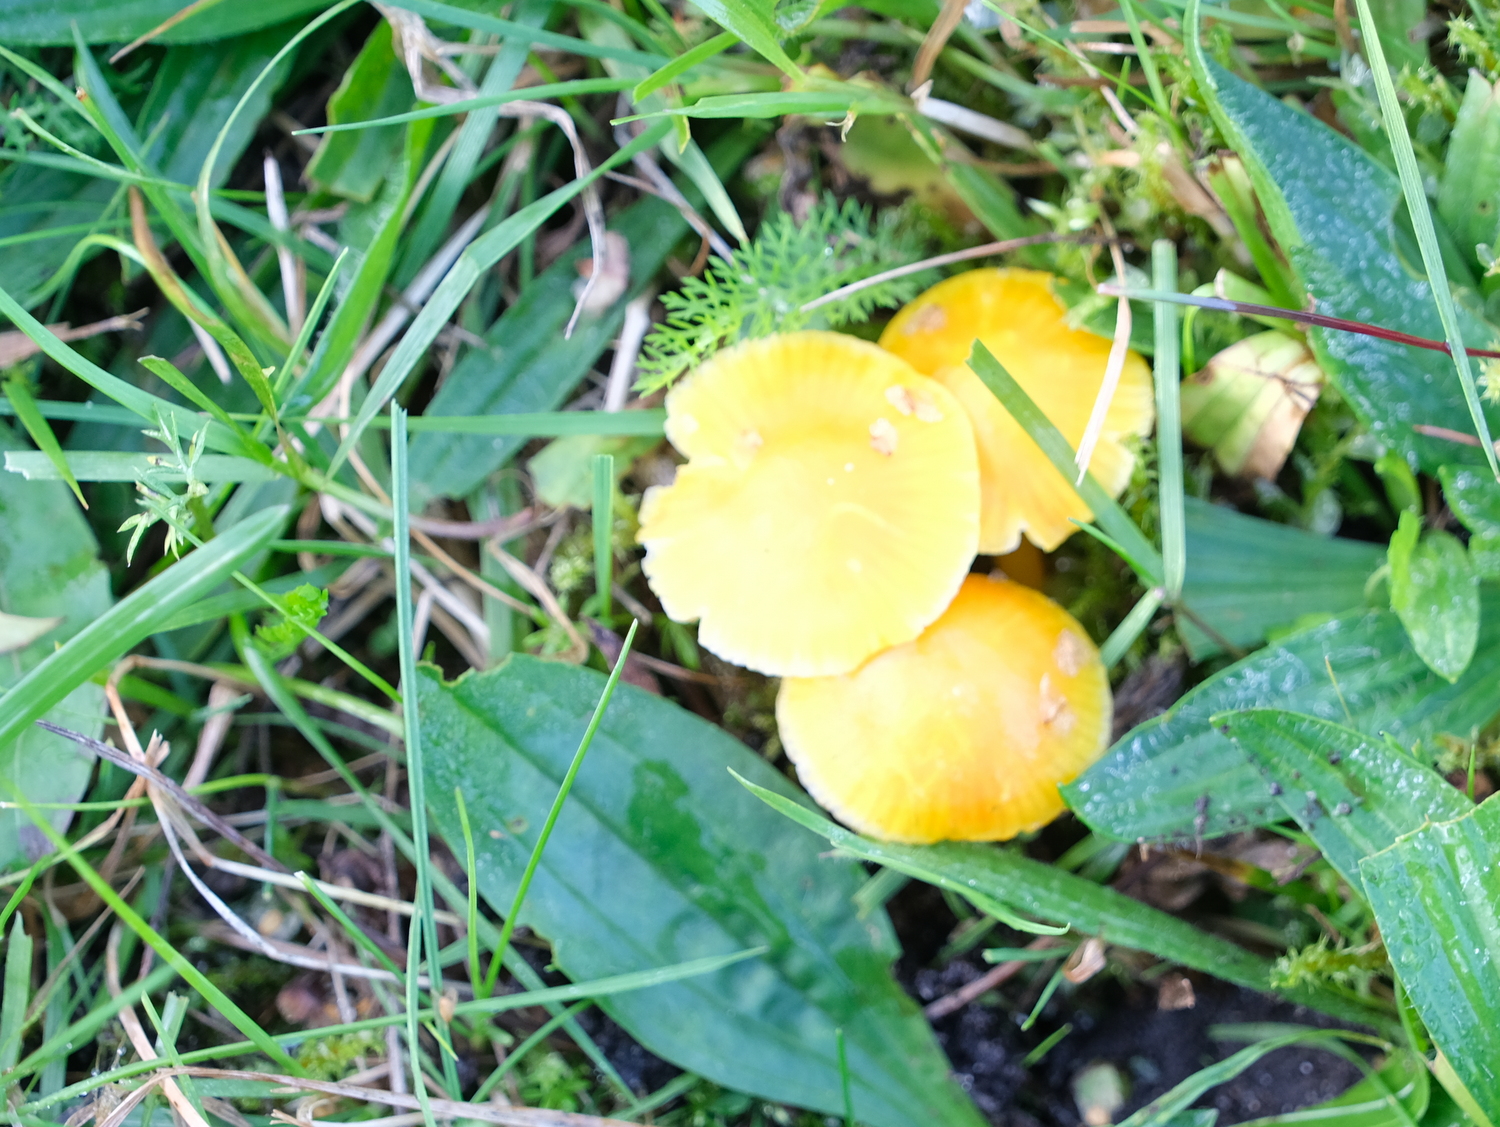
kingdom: Fungi
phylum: Basidiomycota
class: Agaricomycetes
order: Agaricales
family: Hygrophoraceae
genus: Hygrocybe
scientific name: Hygrocybe ceracea
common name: voksgul vokshat
